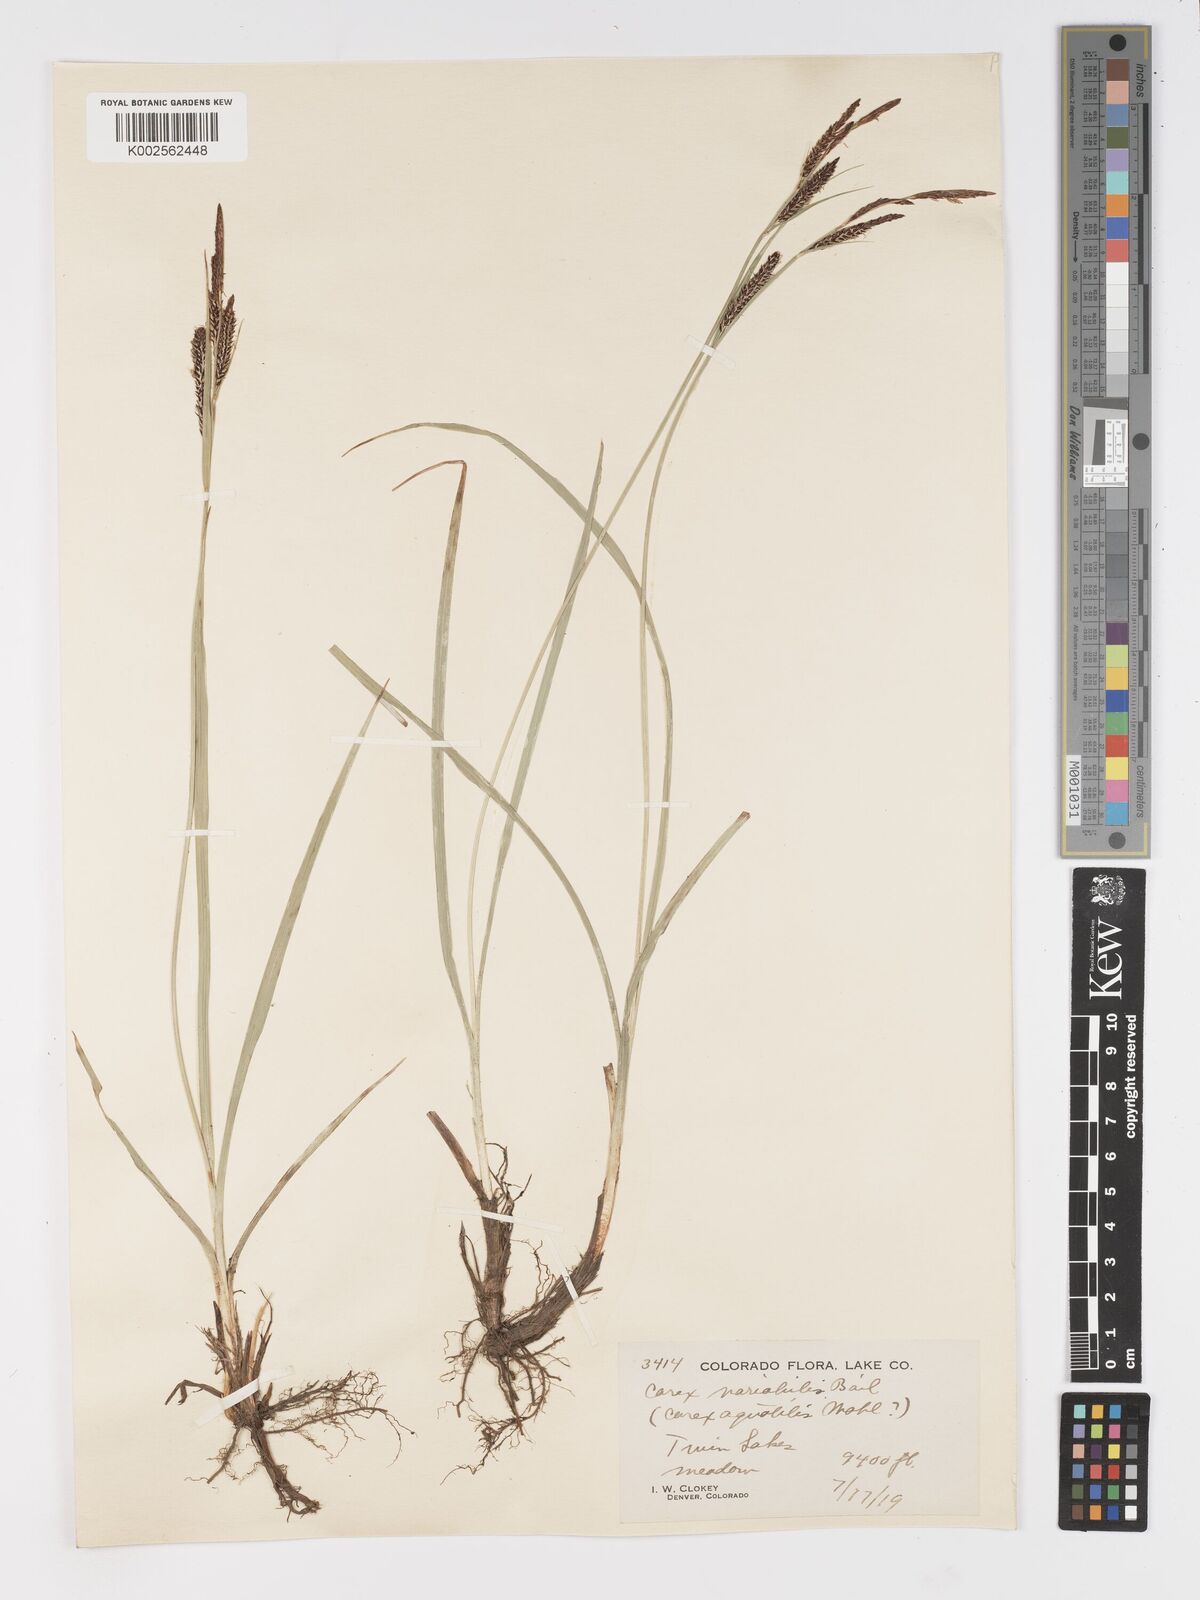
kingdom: Plantae
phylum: Tracheophyta
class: Liliopsida
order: Poales
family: Cyperaceae
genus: Carex
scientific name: Carex
